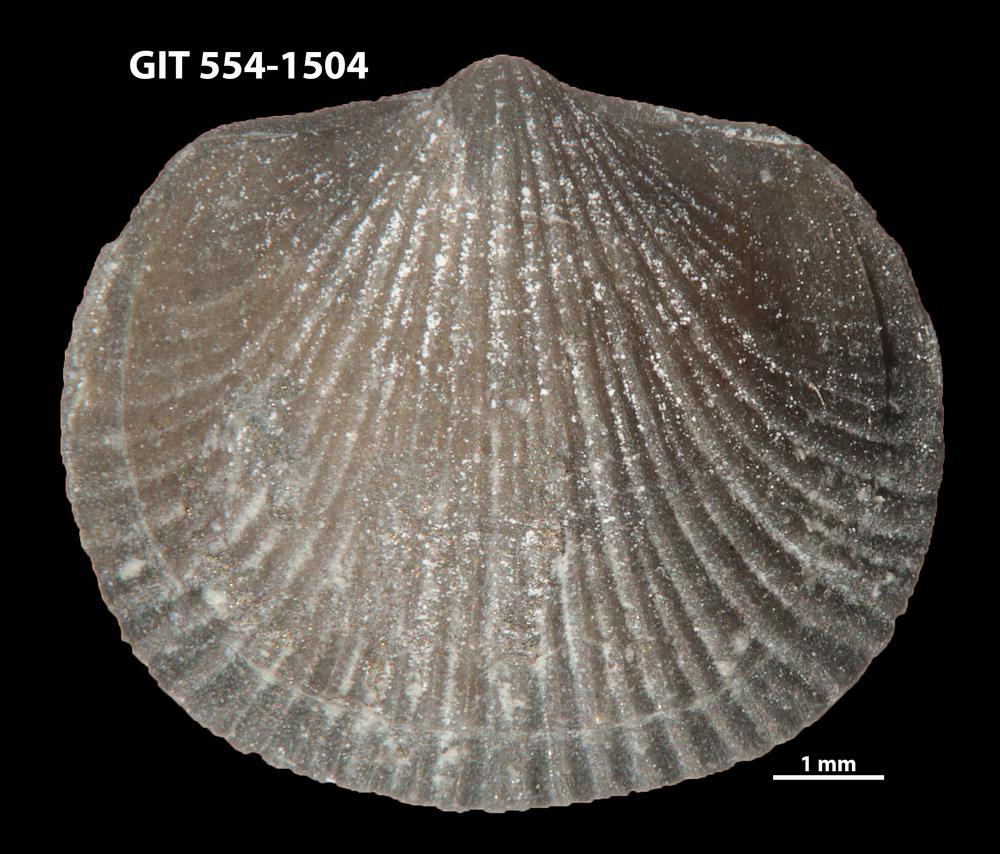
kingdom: Animalia
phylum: Brachiopoda
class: Rhynchonellata
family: Rhipidomellidae
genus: Mendacella
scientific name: Mendacella circularis
